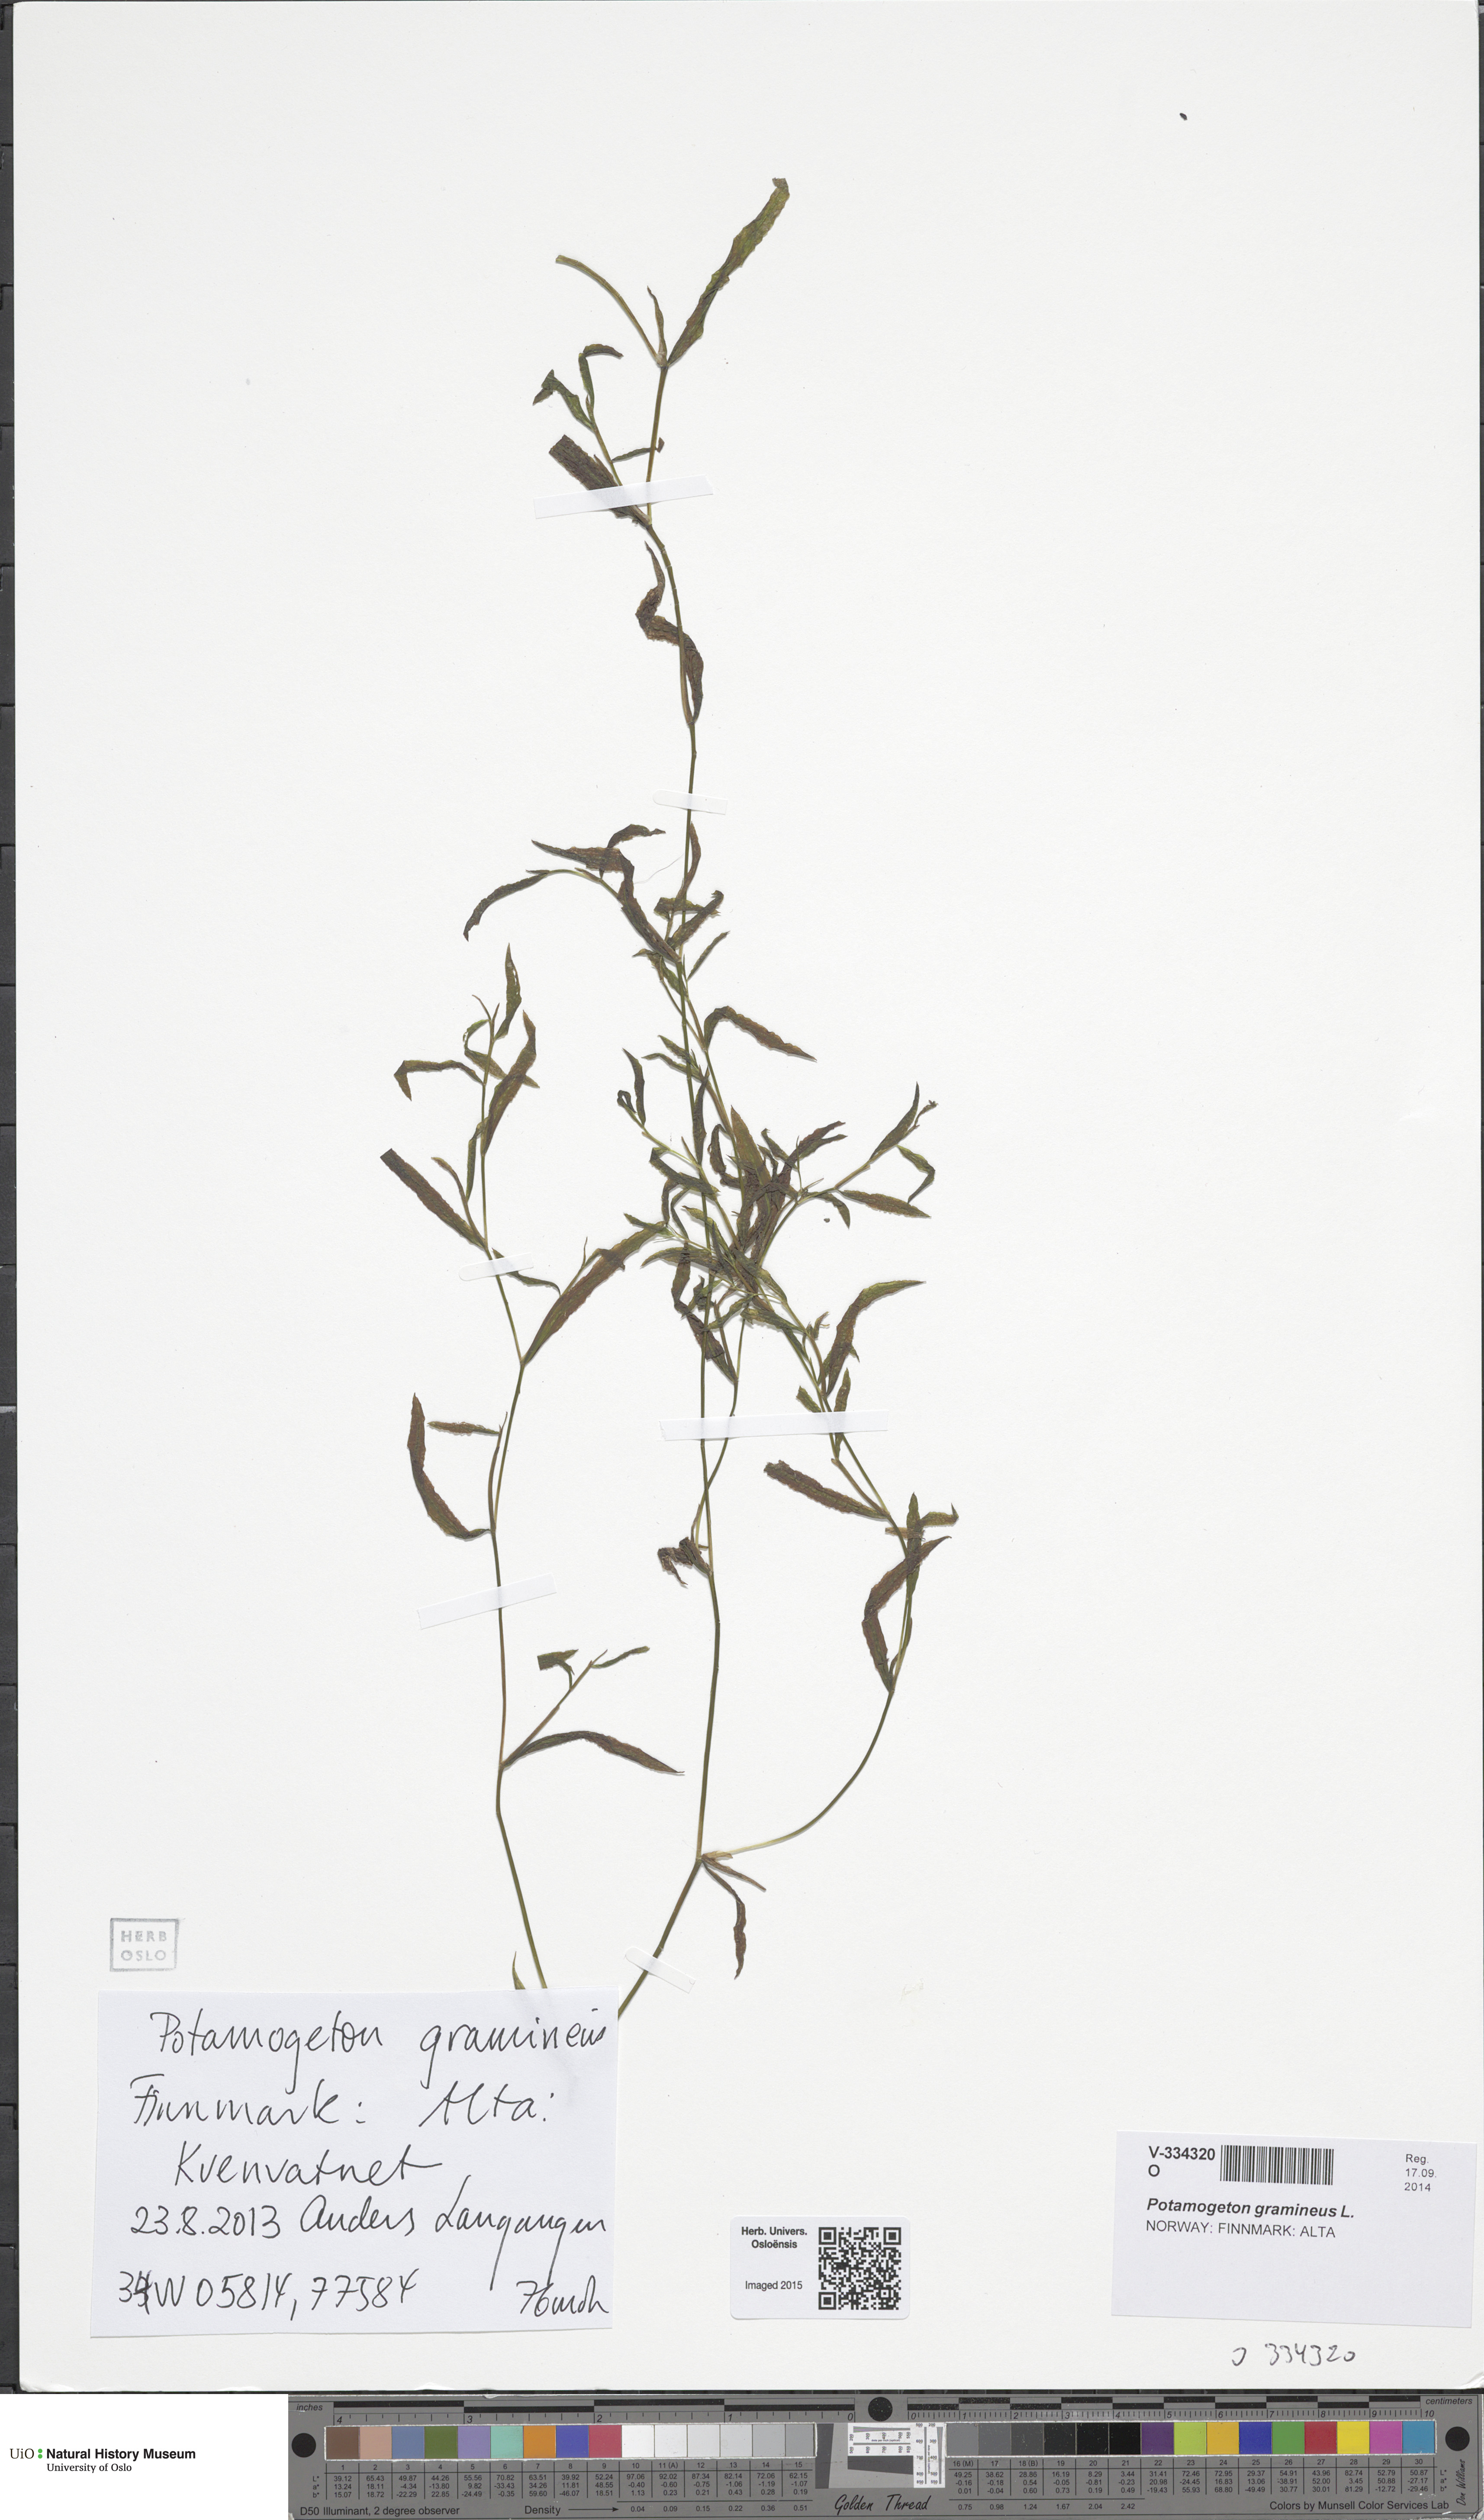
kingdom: Plantae
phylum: Tracheophyta
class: Liliopsida
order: Alismatales
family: Potamogetonaceae
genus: Potamogeton
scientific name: Potamogeton gramineus
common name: Various-leaved pondweed
